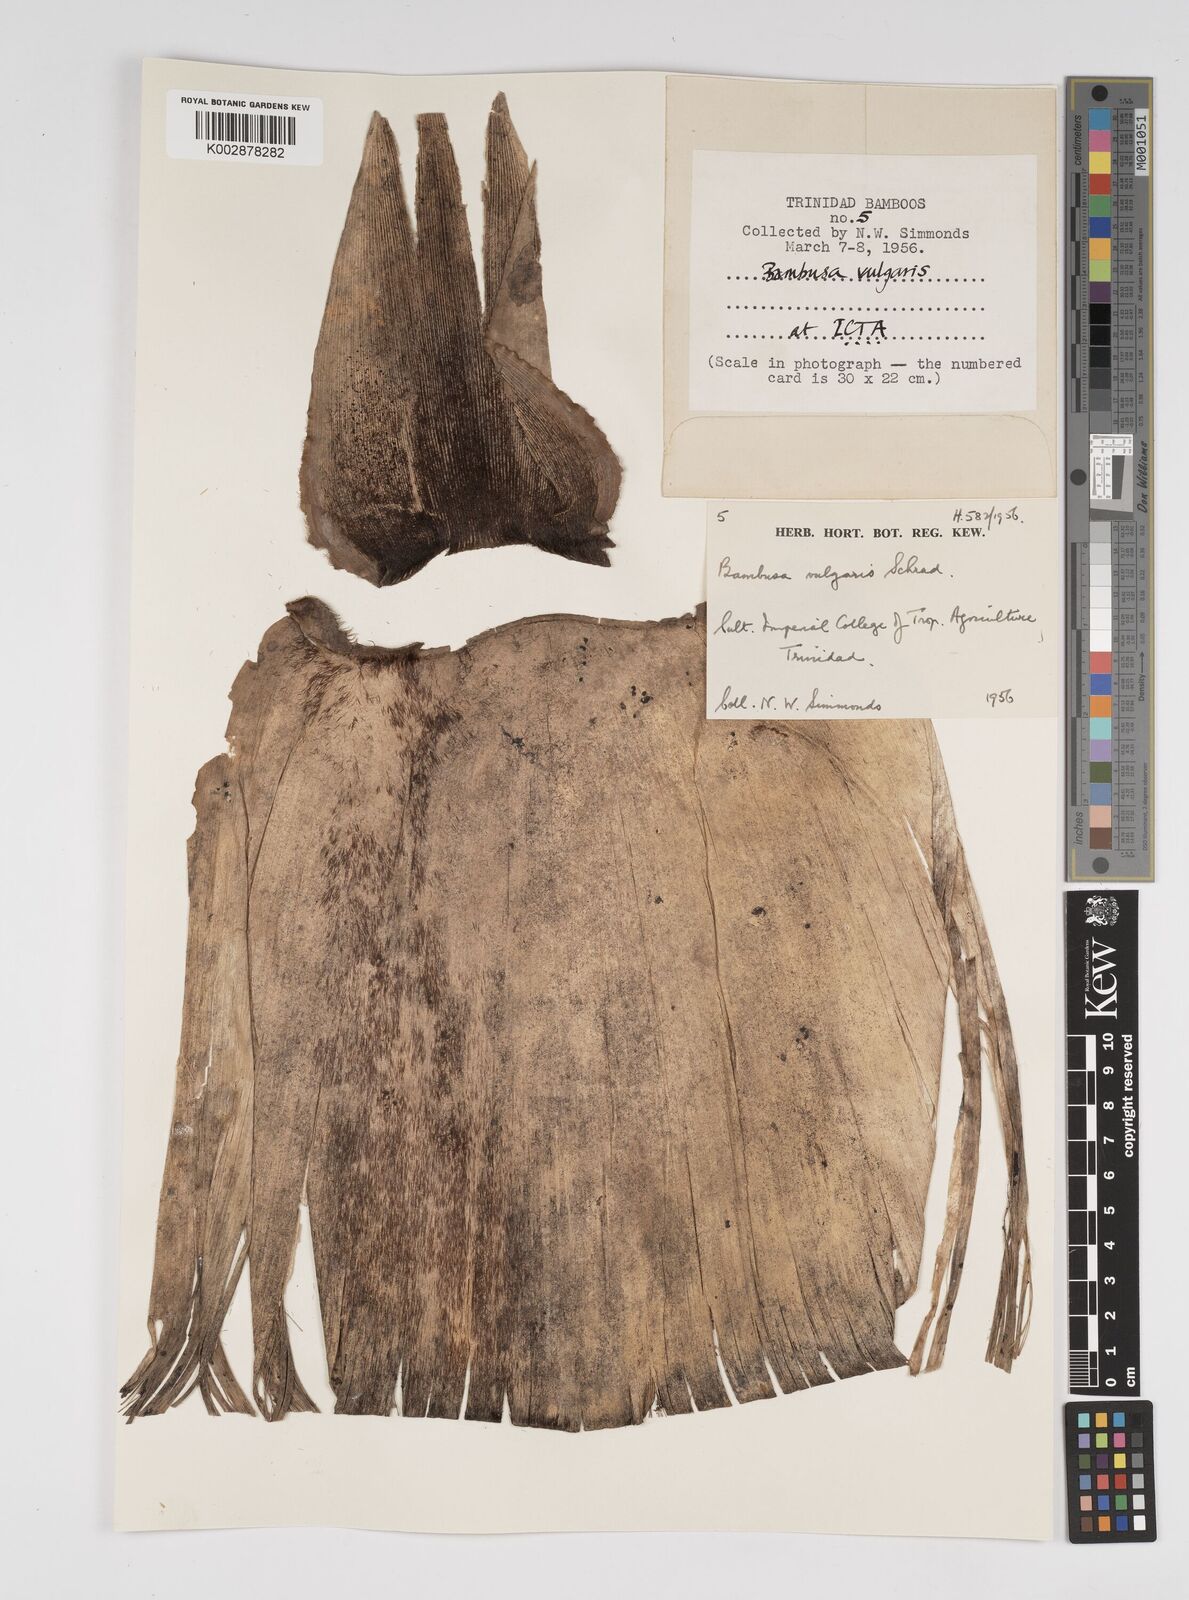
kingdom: Plantae
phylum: Tracheophyta
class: Liliopsida
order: Poales
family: Poaceae
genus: Bambusa
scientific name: Bambusa vulgaris
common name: Common bamboo
